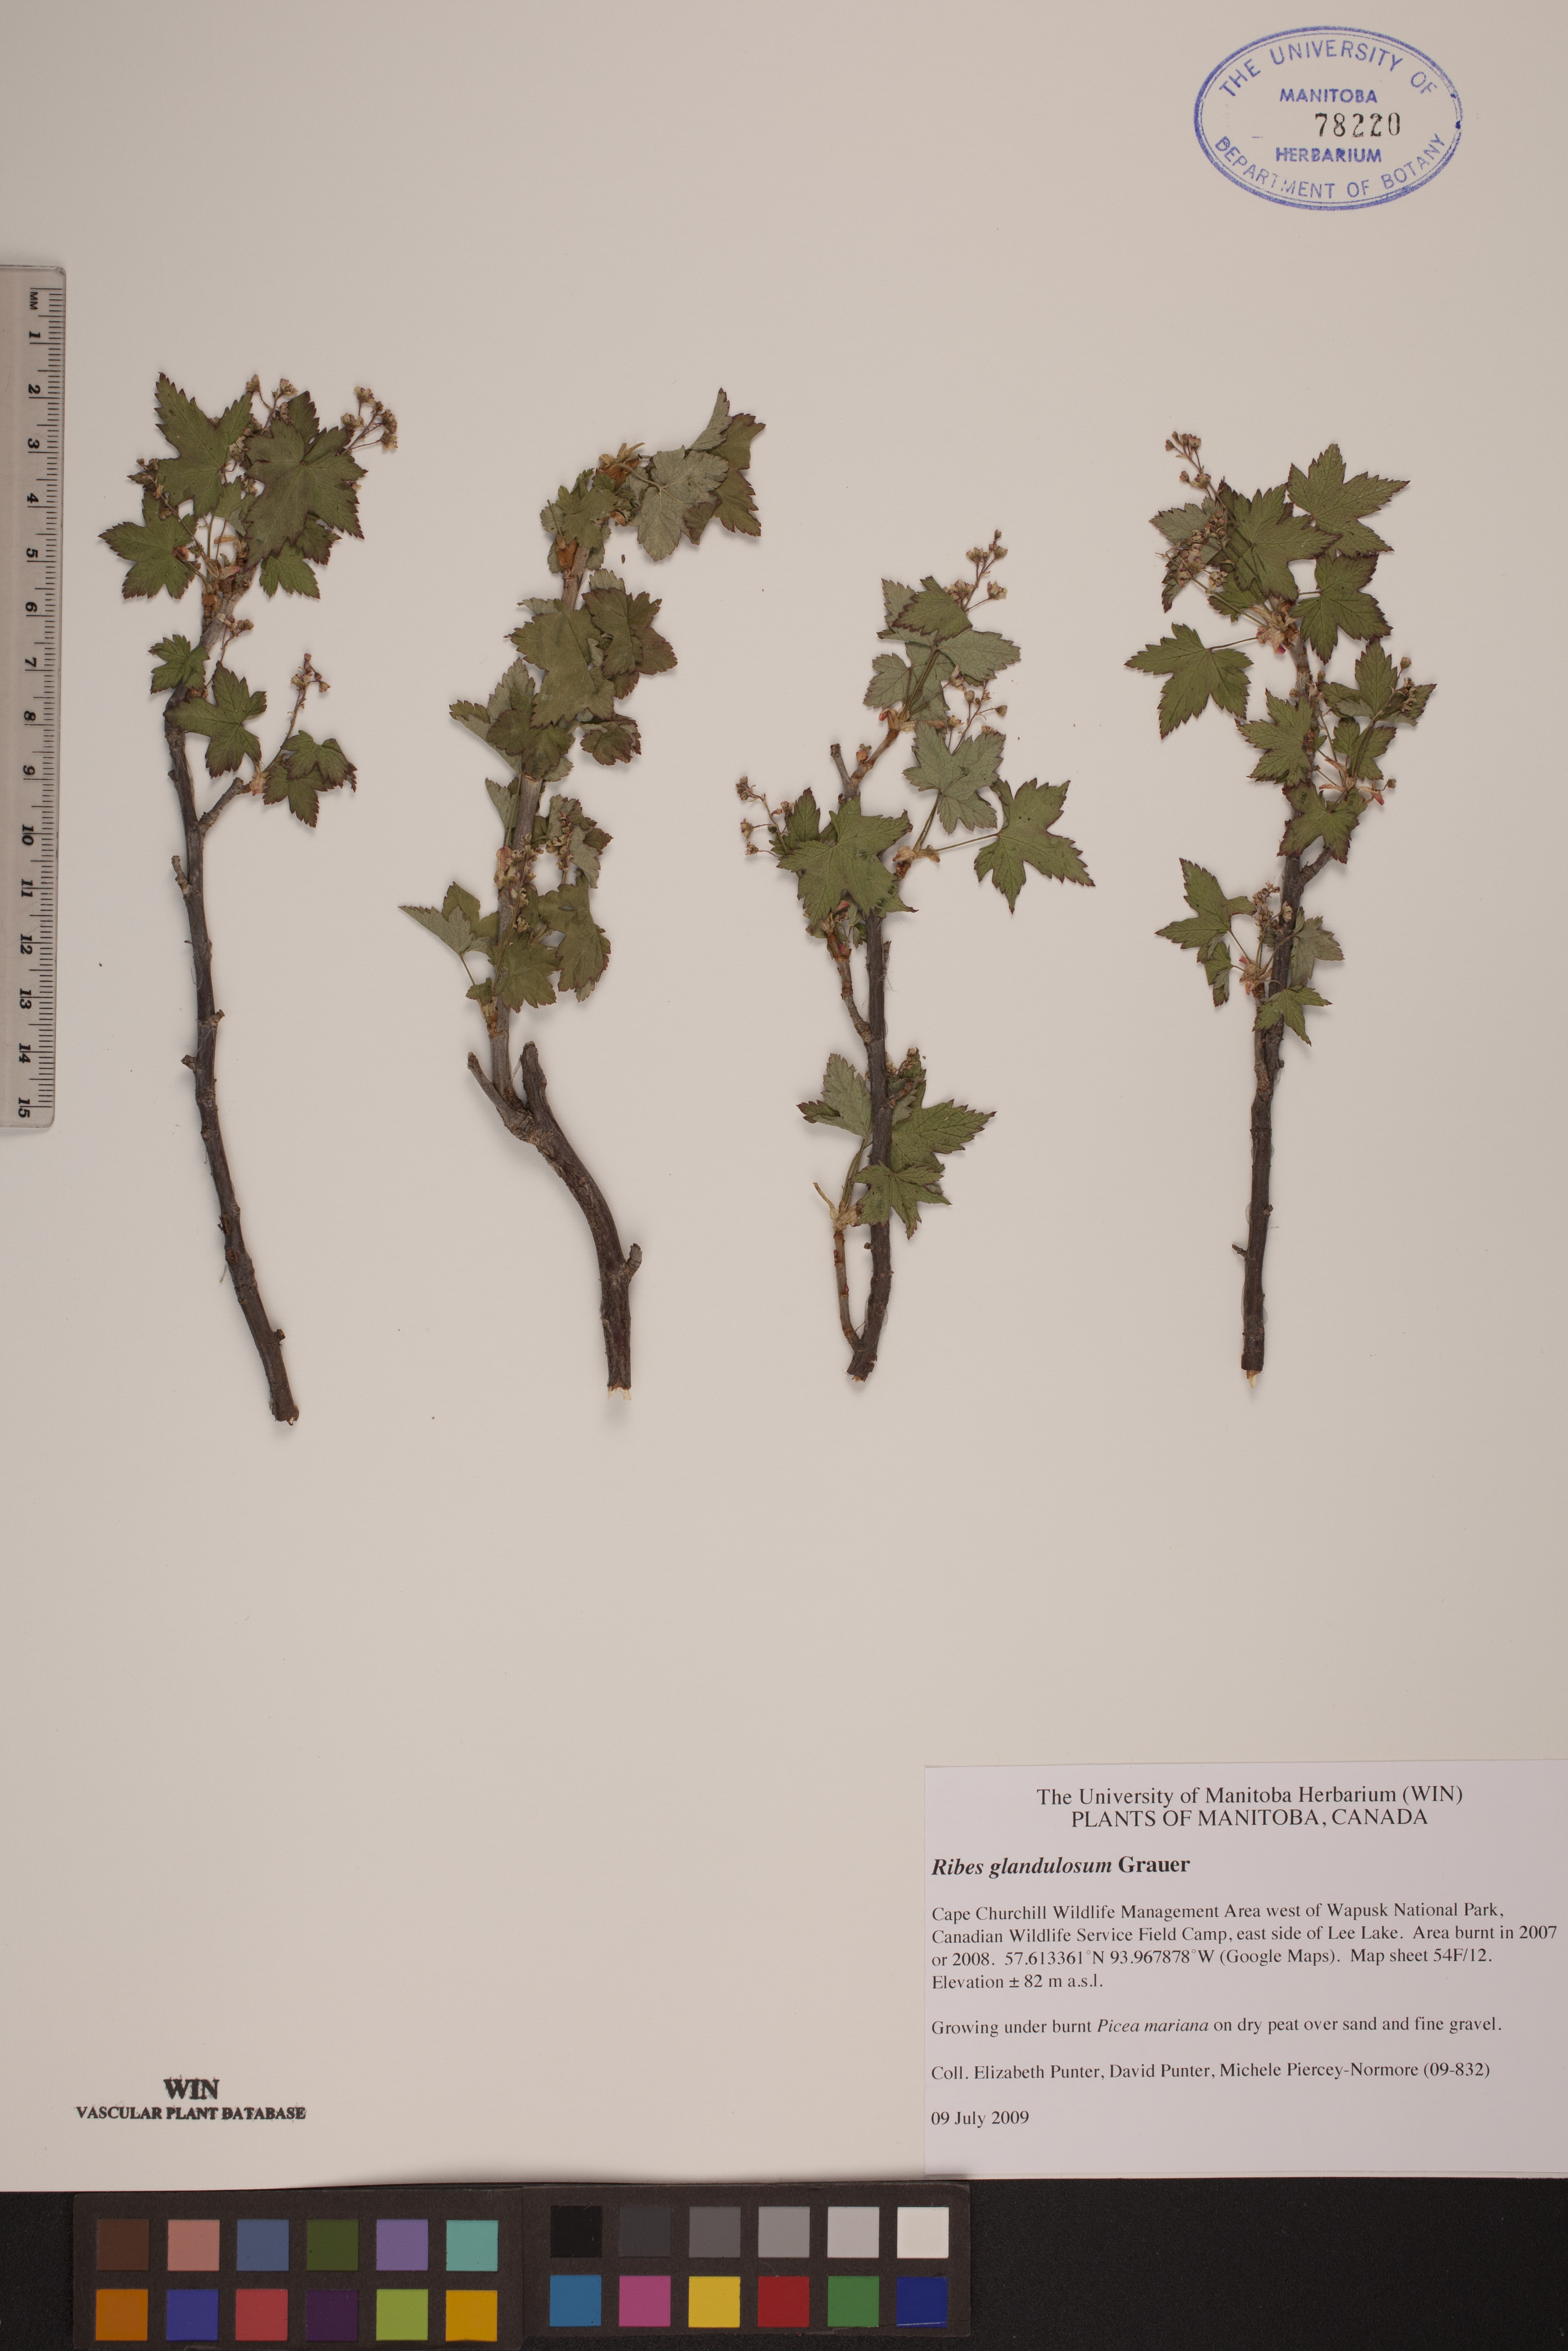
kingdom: Plantae
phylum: Tracheophyta
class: Magnoliopsida
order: Saxifragales
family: Grossulariaceae
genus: Ribes
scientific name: Ribes glandulosum
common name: Skunk currant
